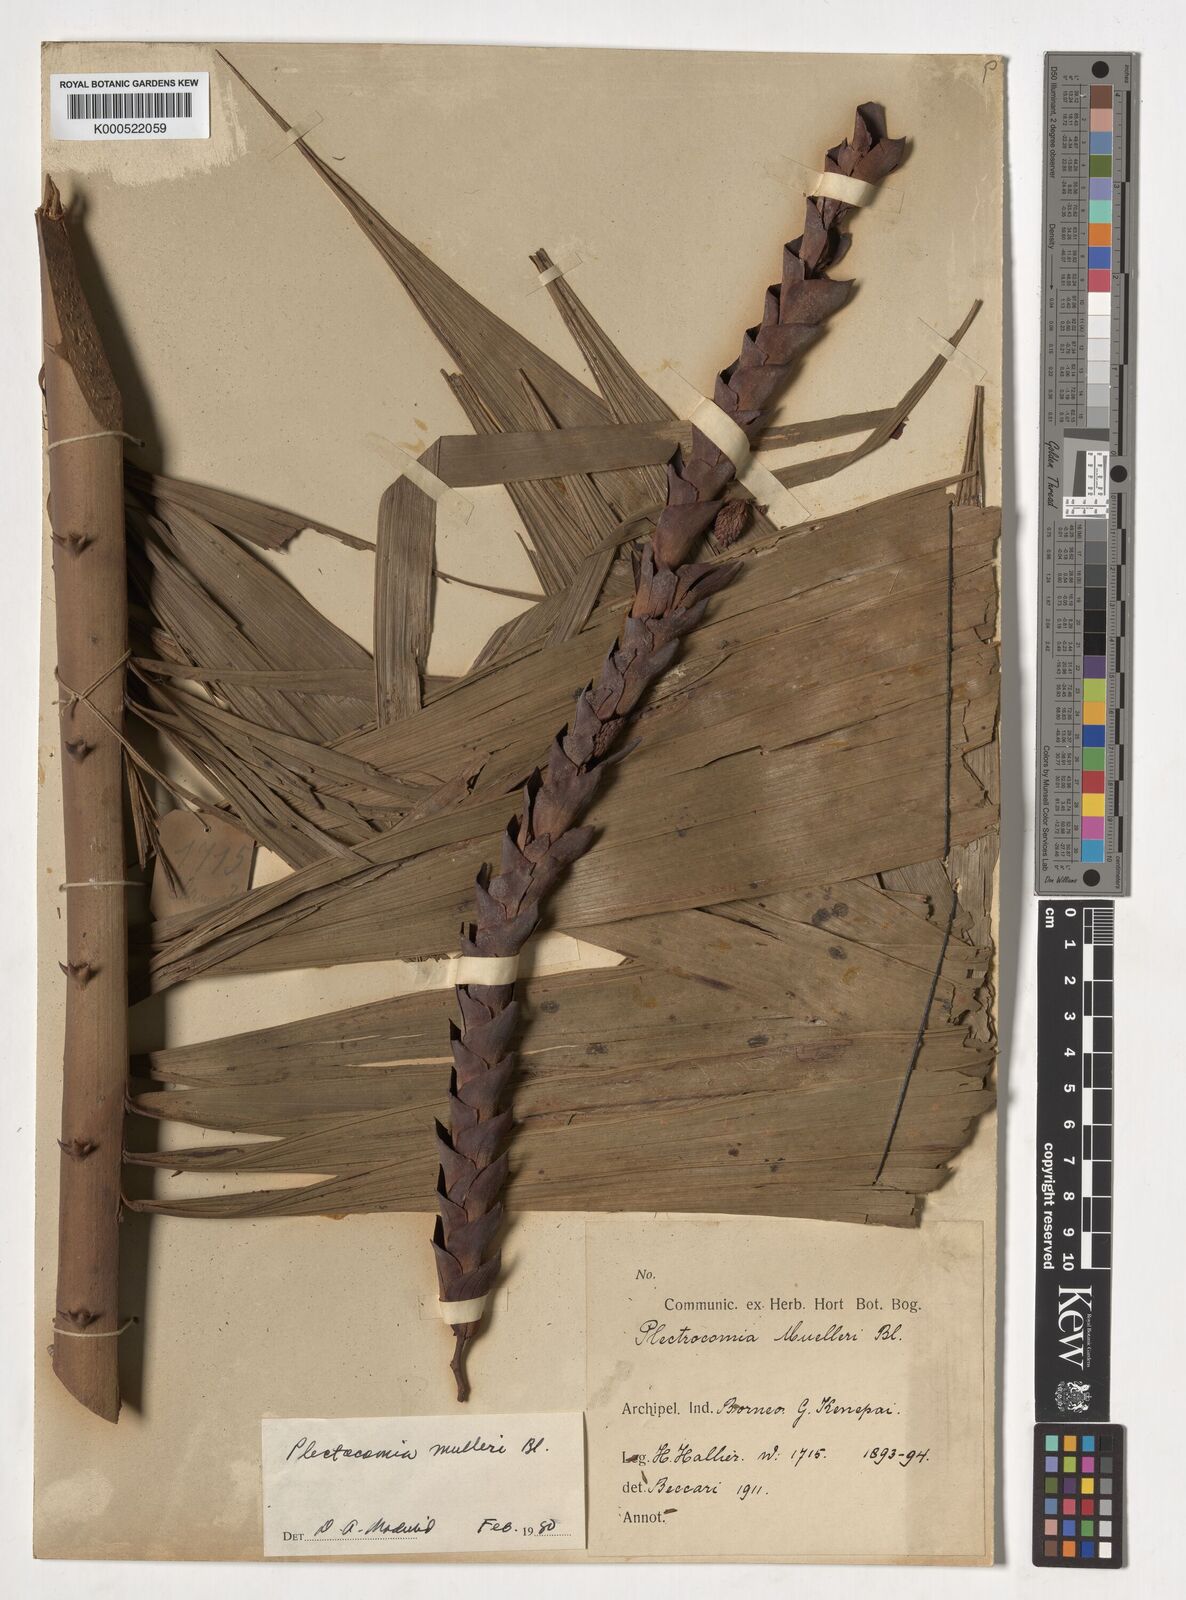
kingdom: Plantae
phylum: Tracheophyta
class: Liliopsida
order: Arecales
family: Arecaceae
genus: Plectocomia
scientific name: Plectocomia mulleri
